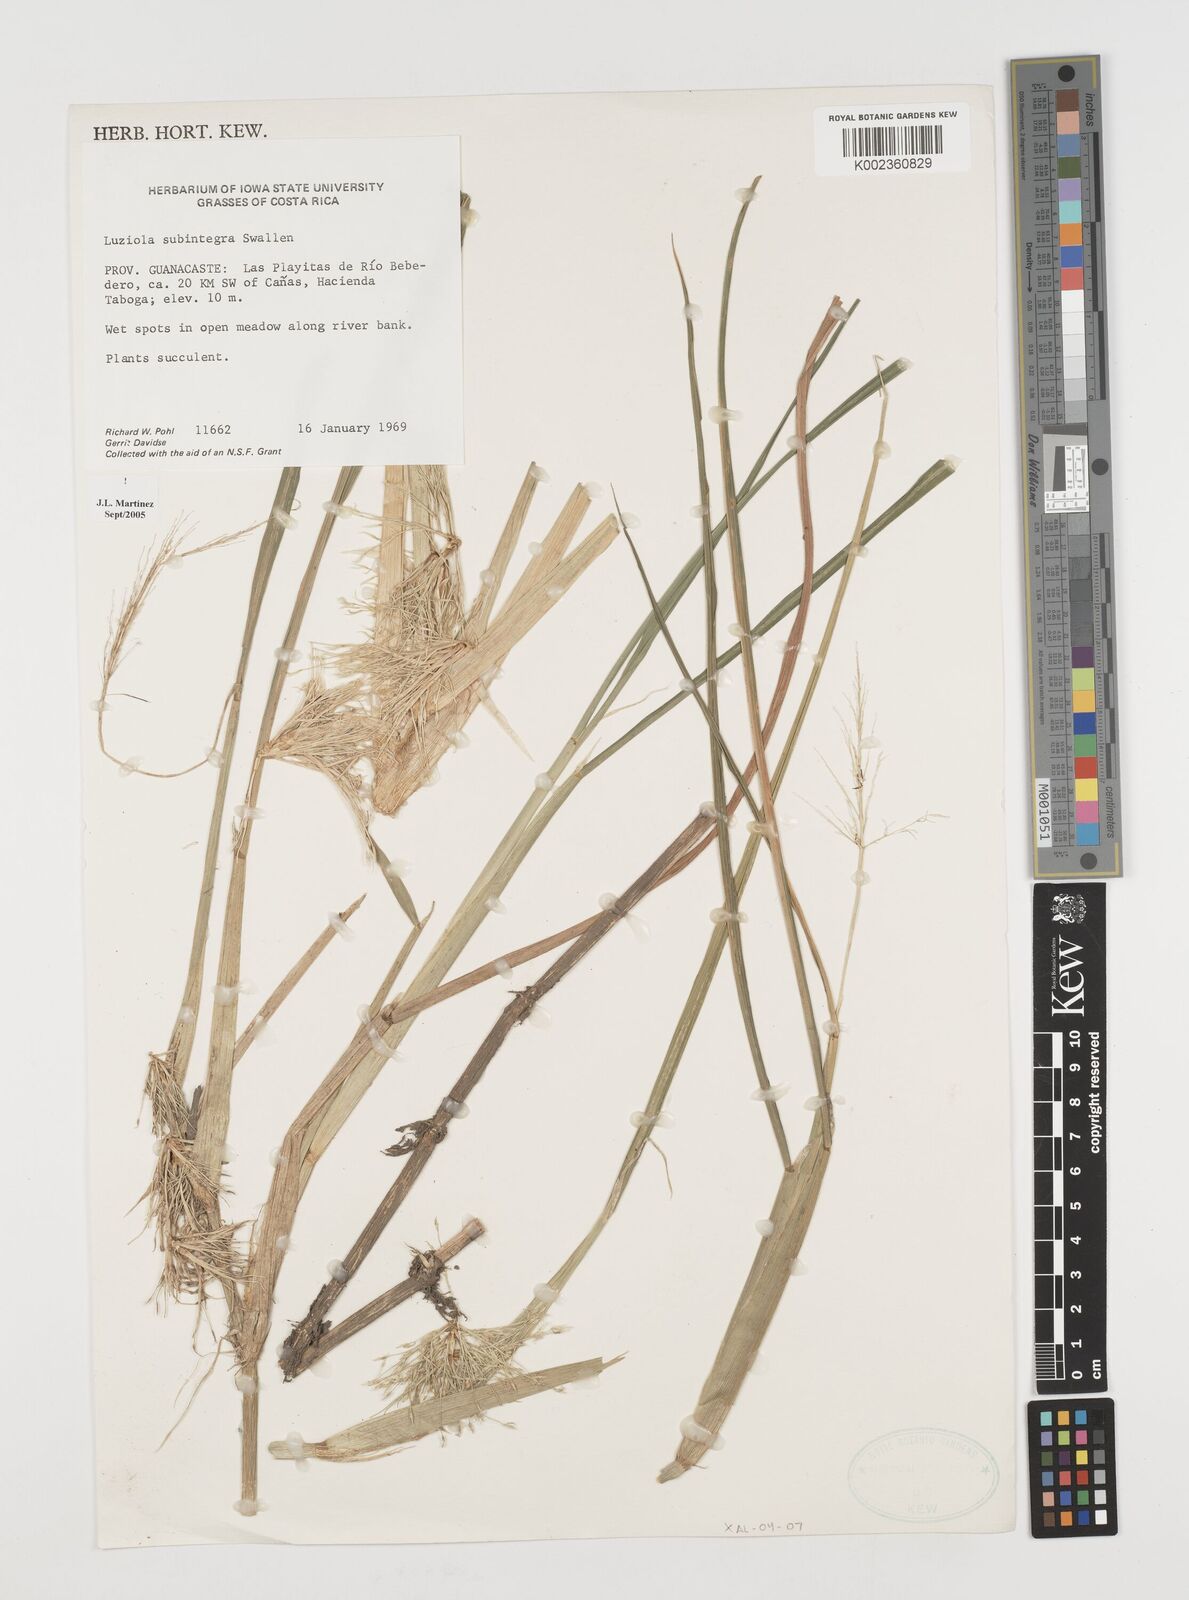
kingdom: Plantae
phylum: Tracheophyta
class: Liliopsida
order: Poales
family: Poaceae
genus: Luziola
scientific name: Luziola subintegra
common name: Large watergrass
